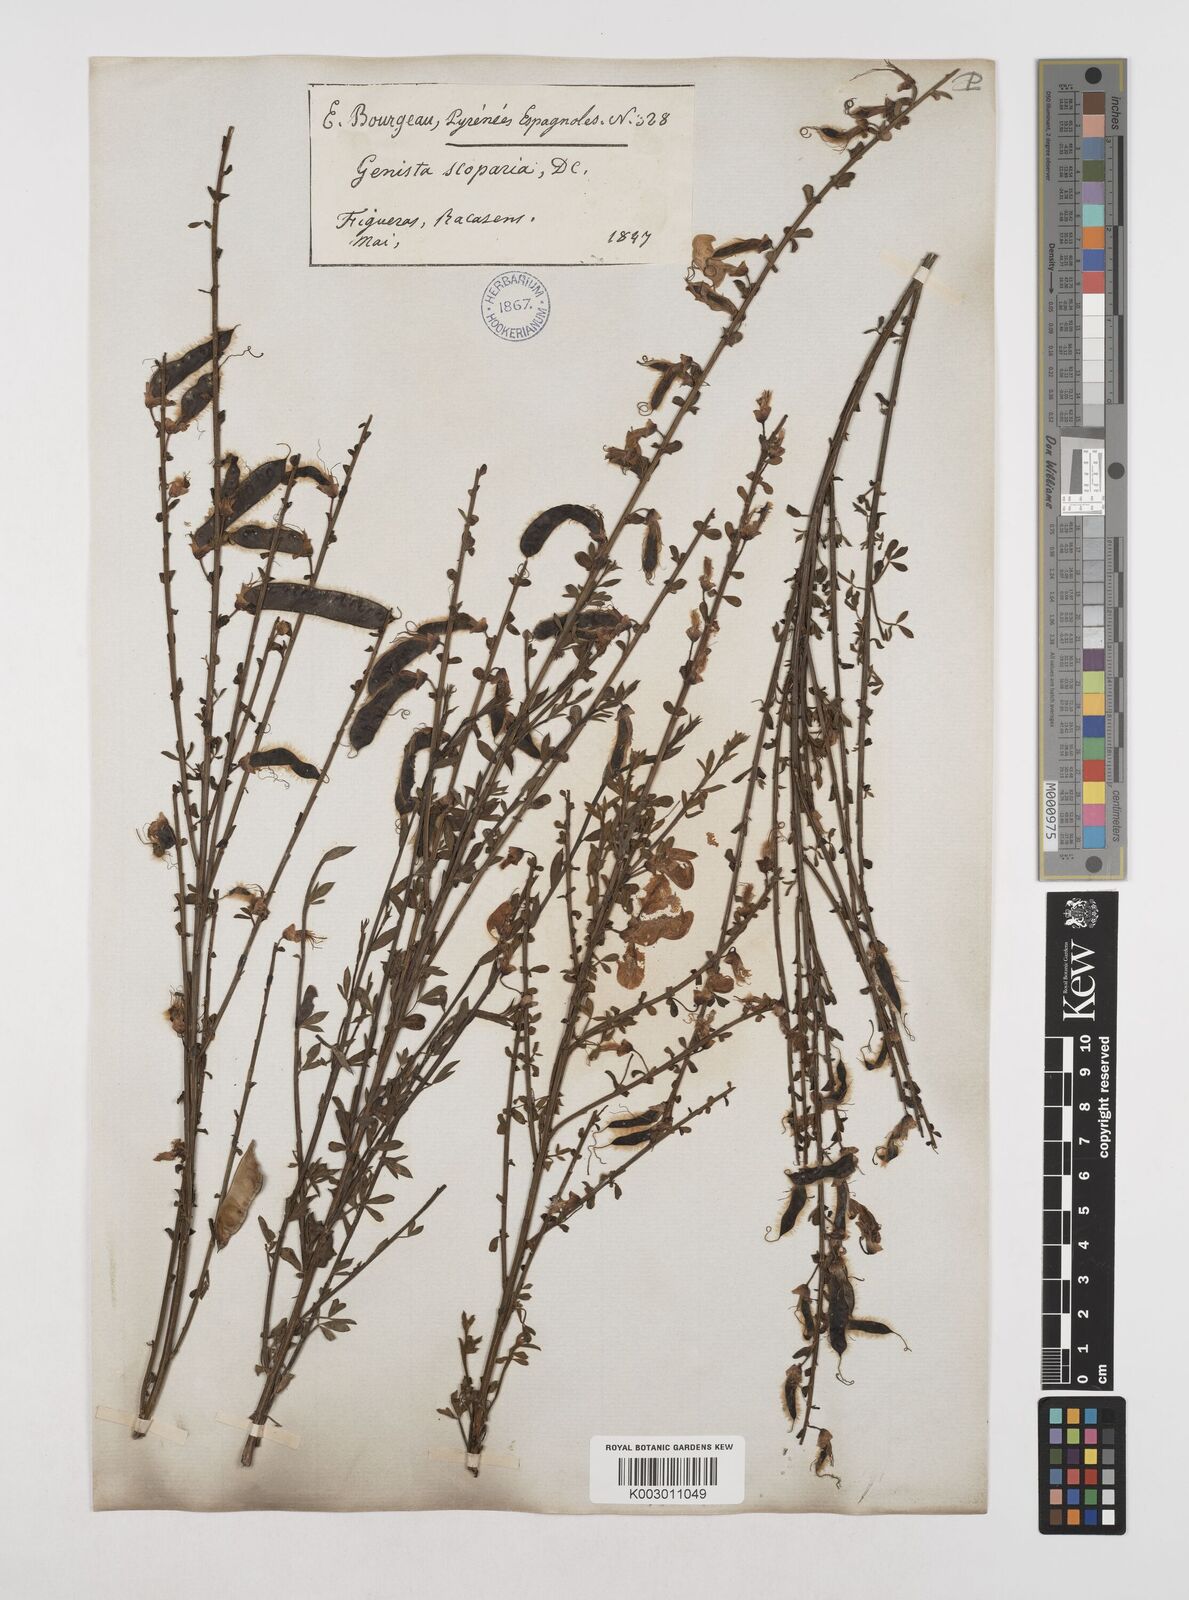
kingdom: Plantae
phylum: Tracheophyta
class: Magnoliopsida
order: Fabales
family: Fabaceae
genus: Cytisus
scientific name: Cytisus scoparius
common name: Scotch broom
